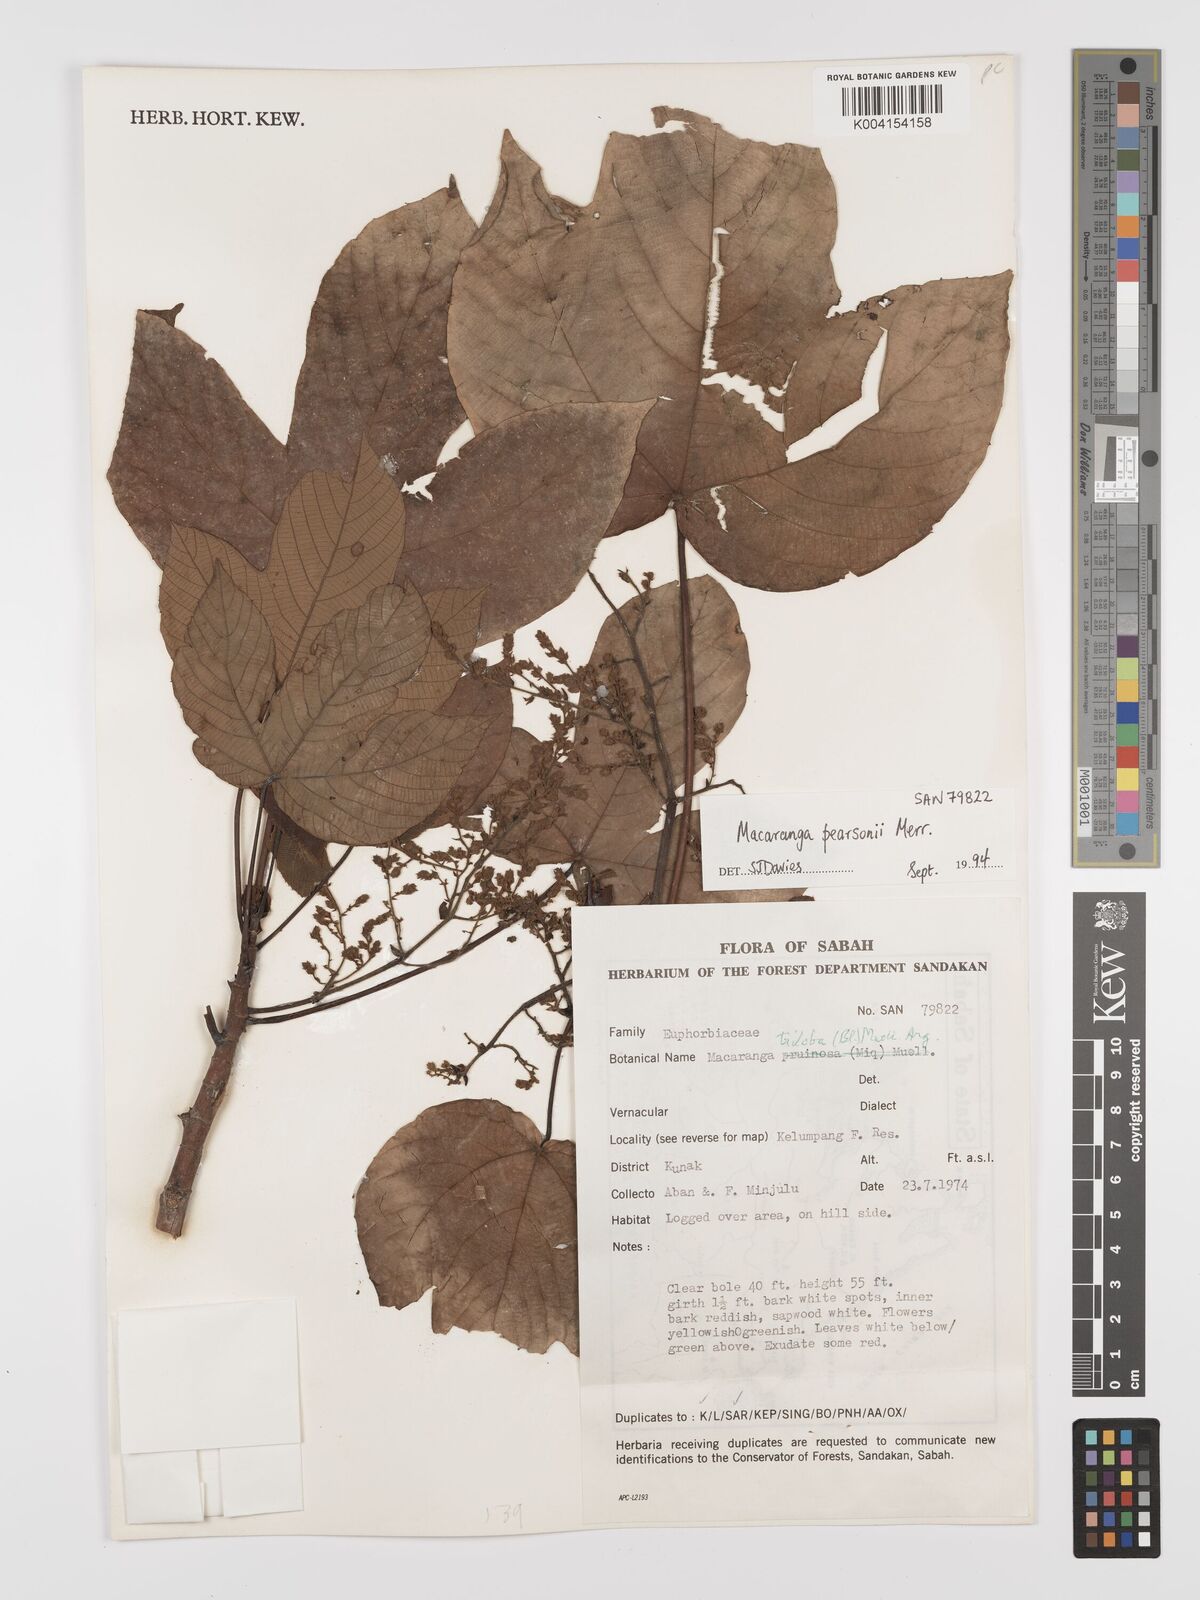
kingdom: Plantae
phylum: Tracheophyta
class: Magnoliopsida
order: Malpighiales
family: Euphorbiaceae
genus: Macaranga
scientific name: Macaranga pearsonii
